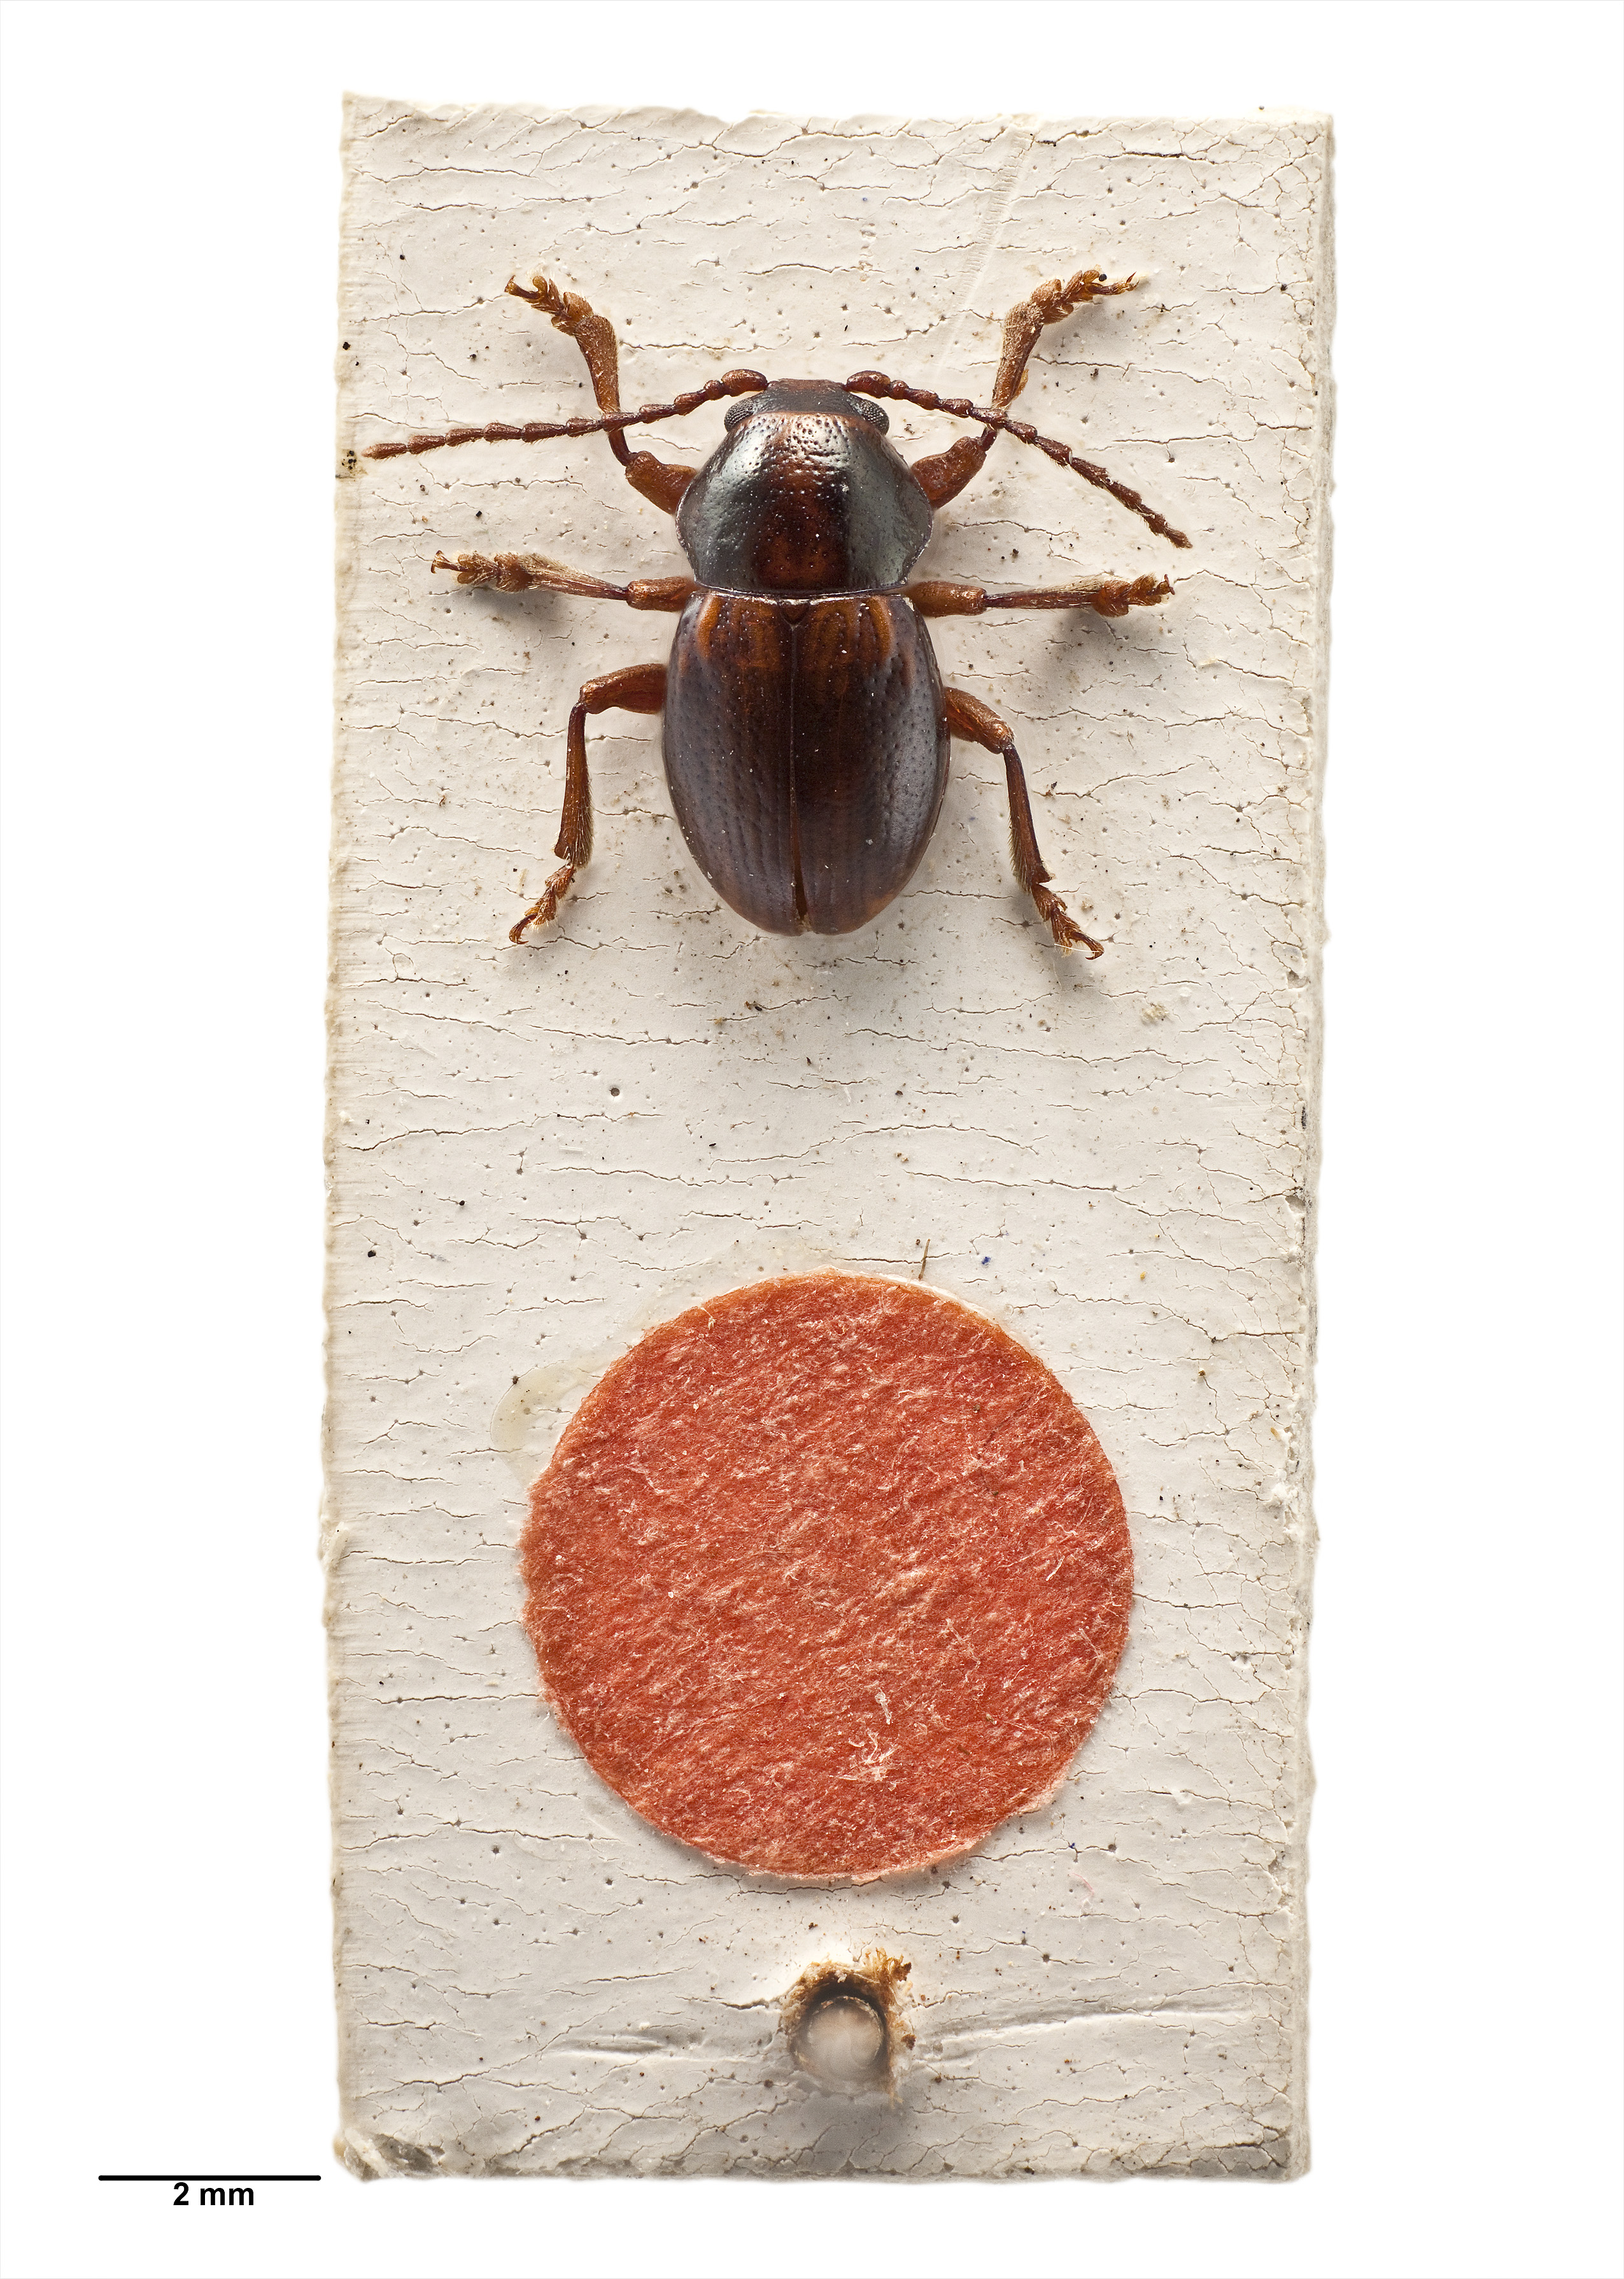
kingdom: Animalia
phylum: Arthropoda
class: Insecta
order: Coleoptera
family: Chrysomelidae
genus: Peniticus
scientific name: Peniticus wallacei
